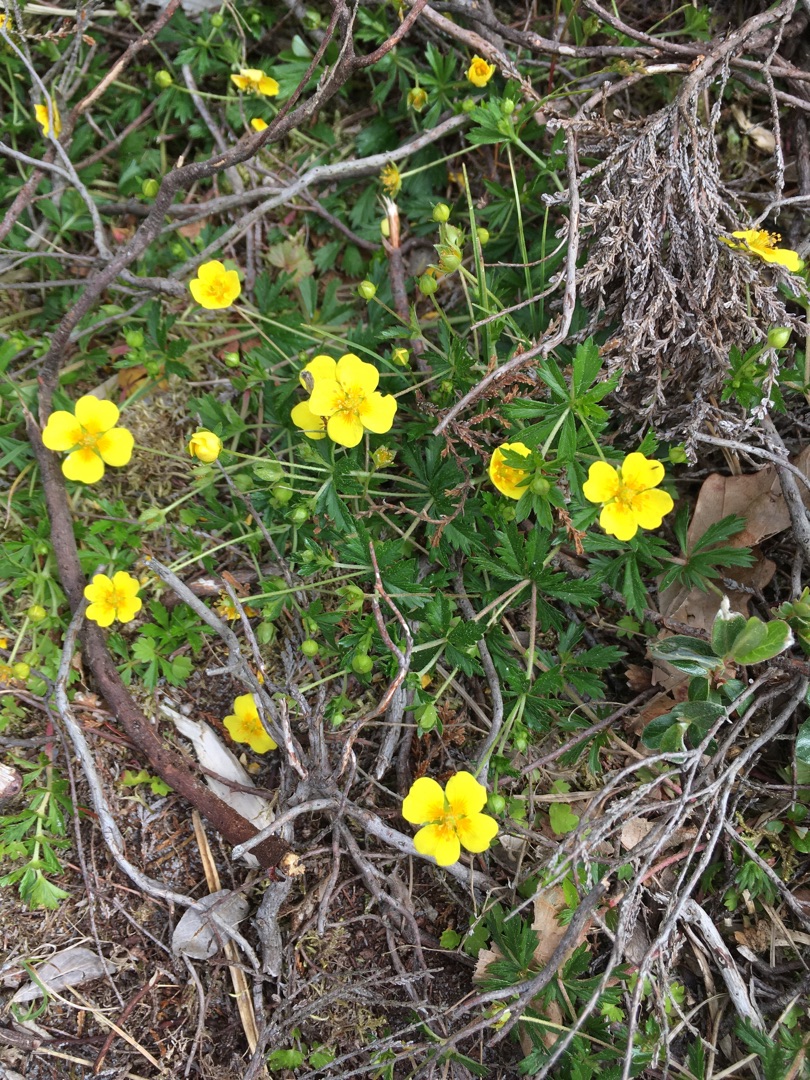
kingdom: Plantae
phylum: Tracheophyta
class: Magnoliopsida
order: Rosales
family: Rosaceae
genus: Potentilla
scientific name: Potentilla erecta
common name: Tormentil
